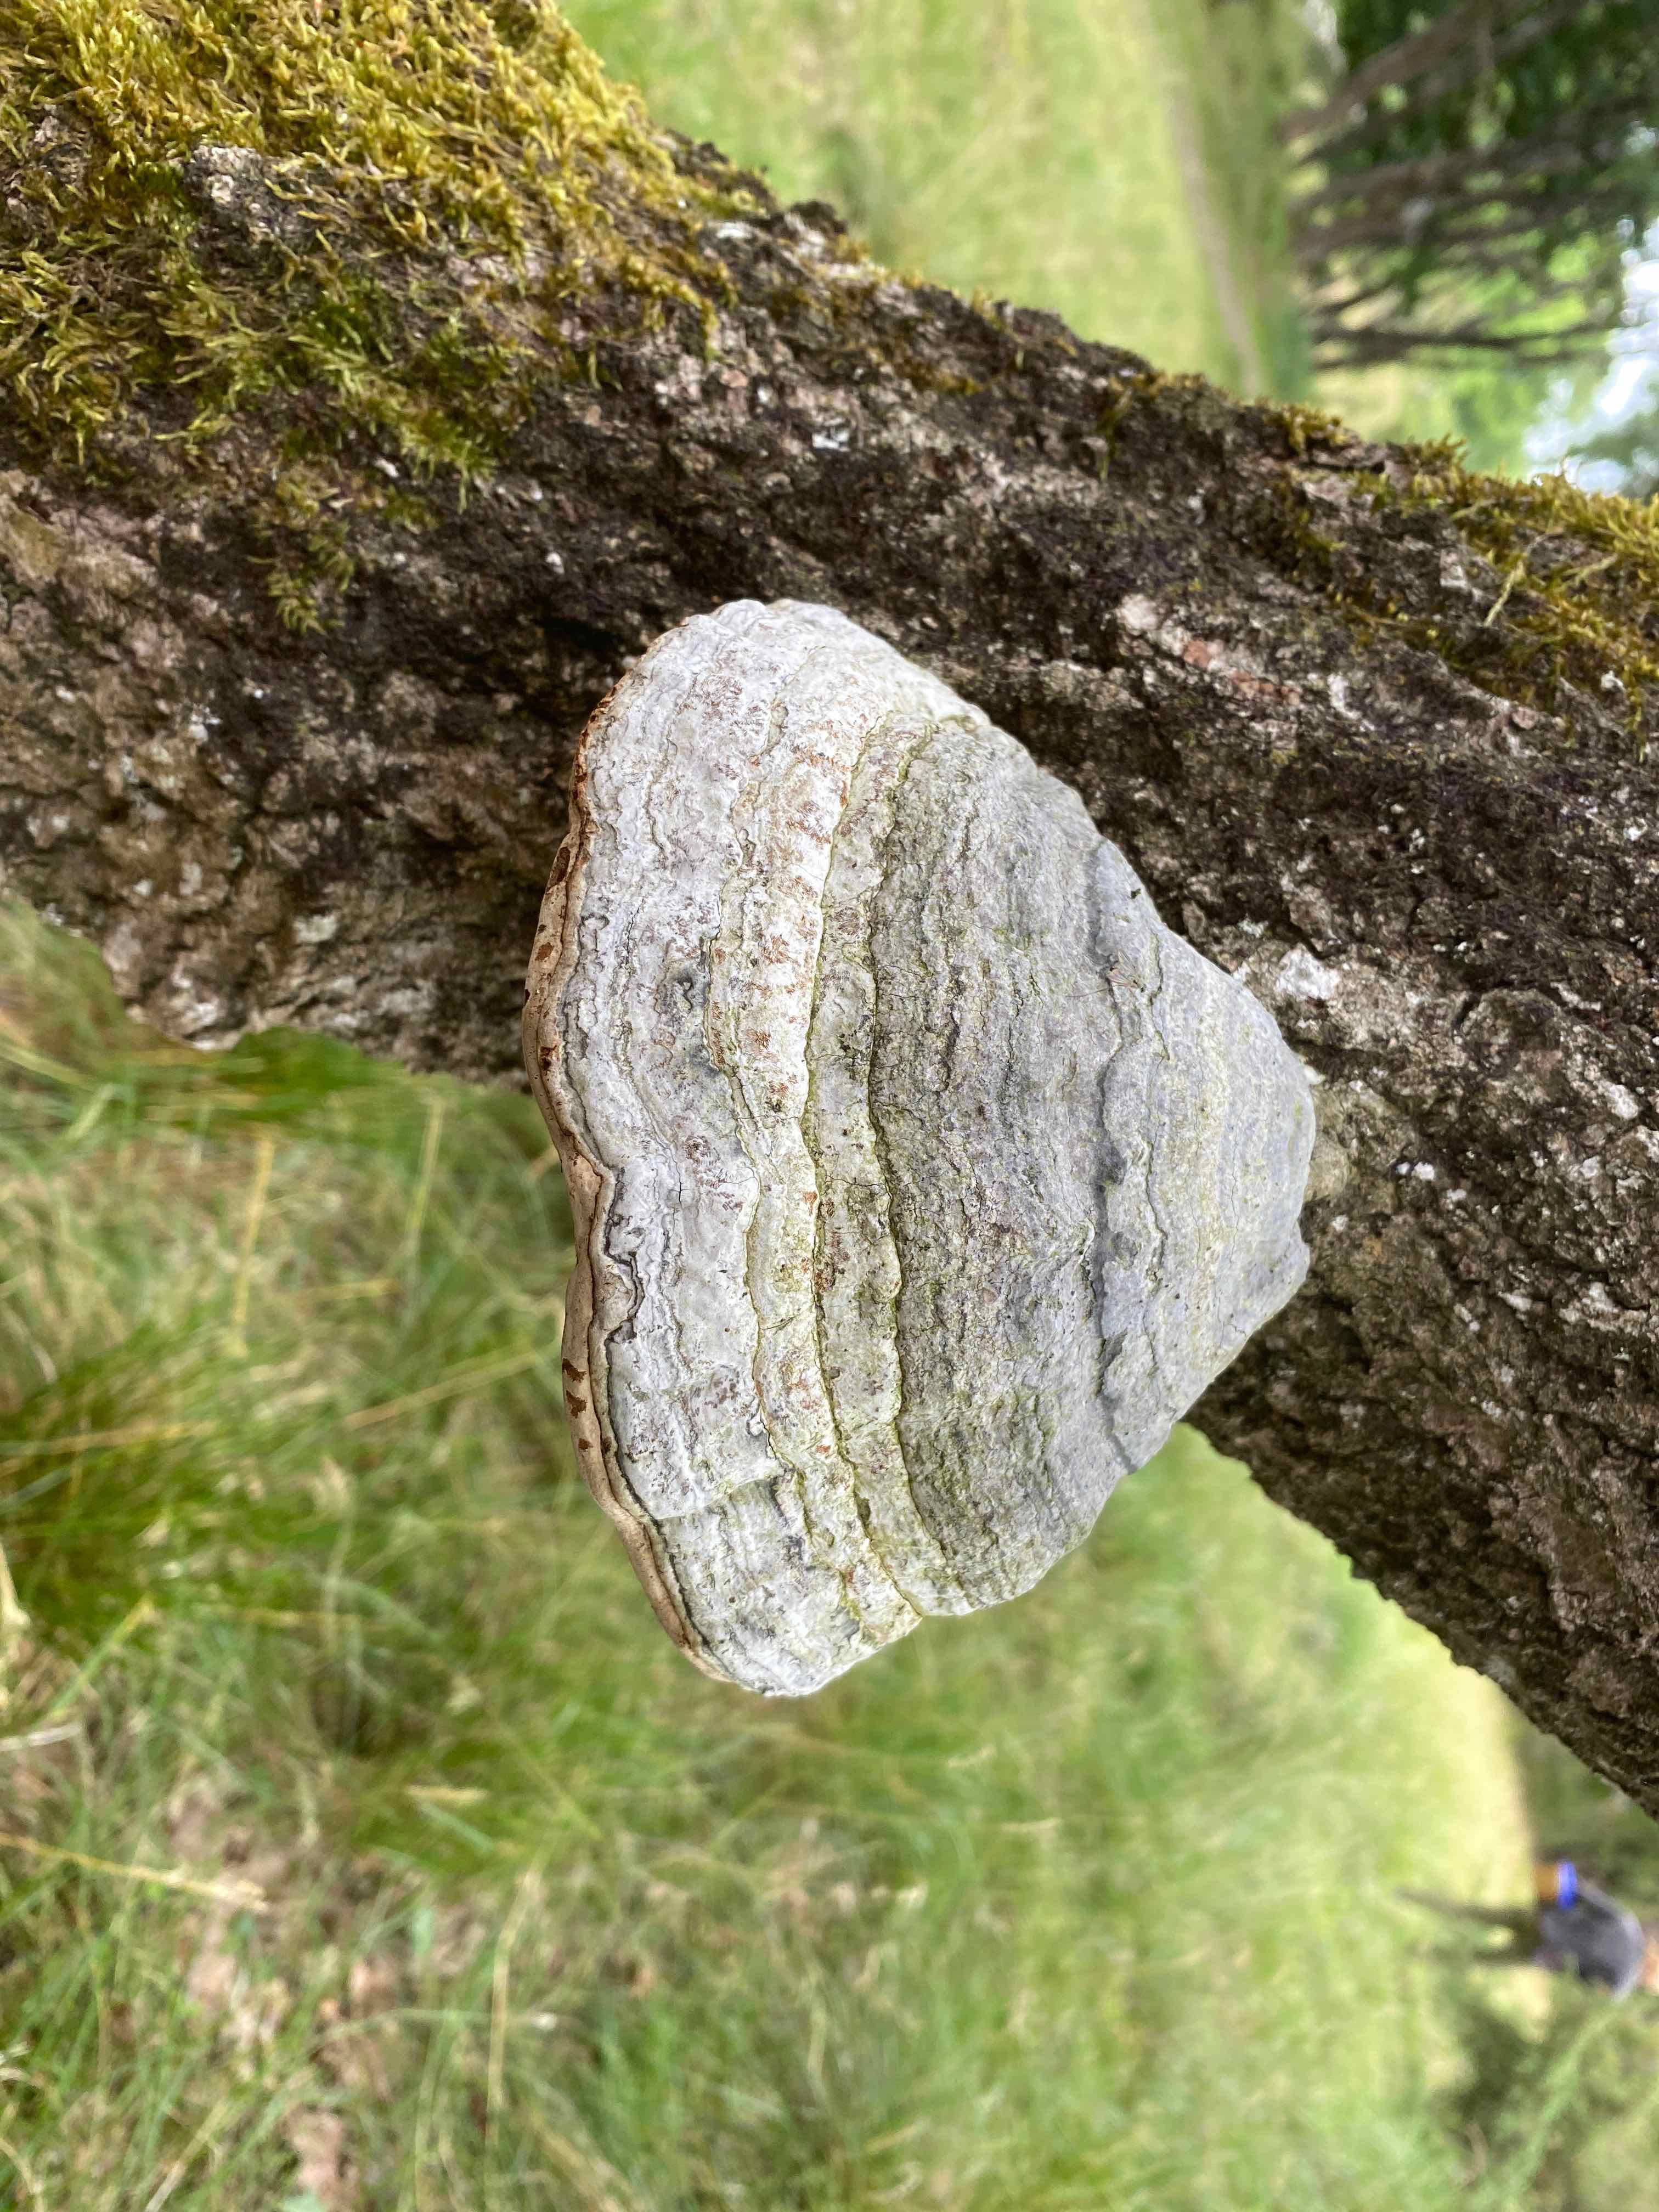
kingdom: Fungi
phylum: Basidiomycota
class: Agaricomycetes
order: Polyporales
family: Polyporaceae
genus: Fomes
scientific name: Fomes fomentarius
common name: tøndersvamp
